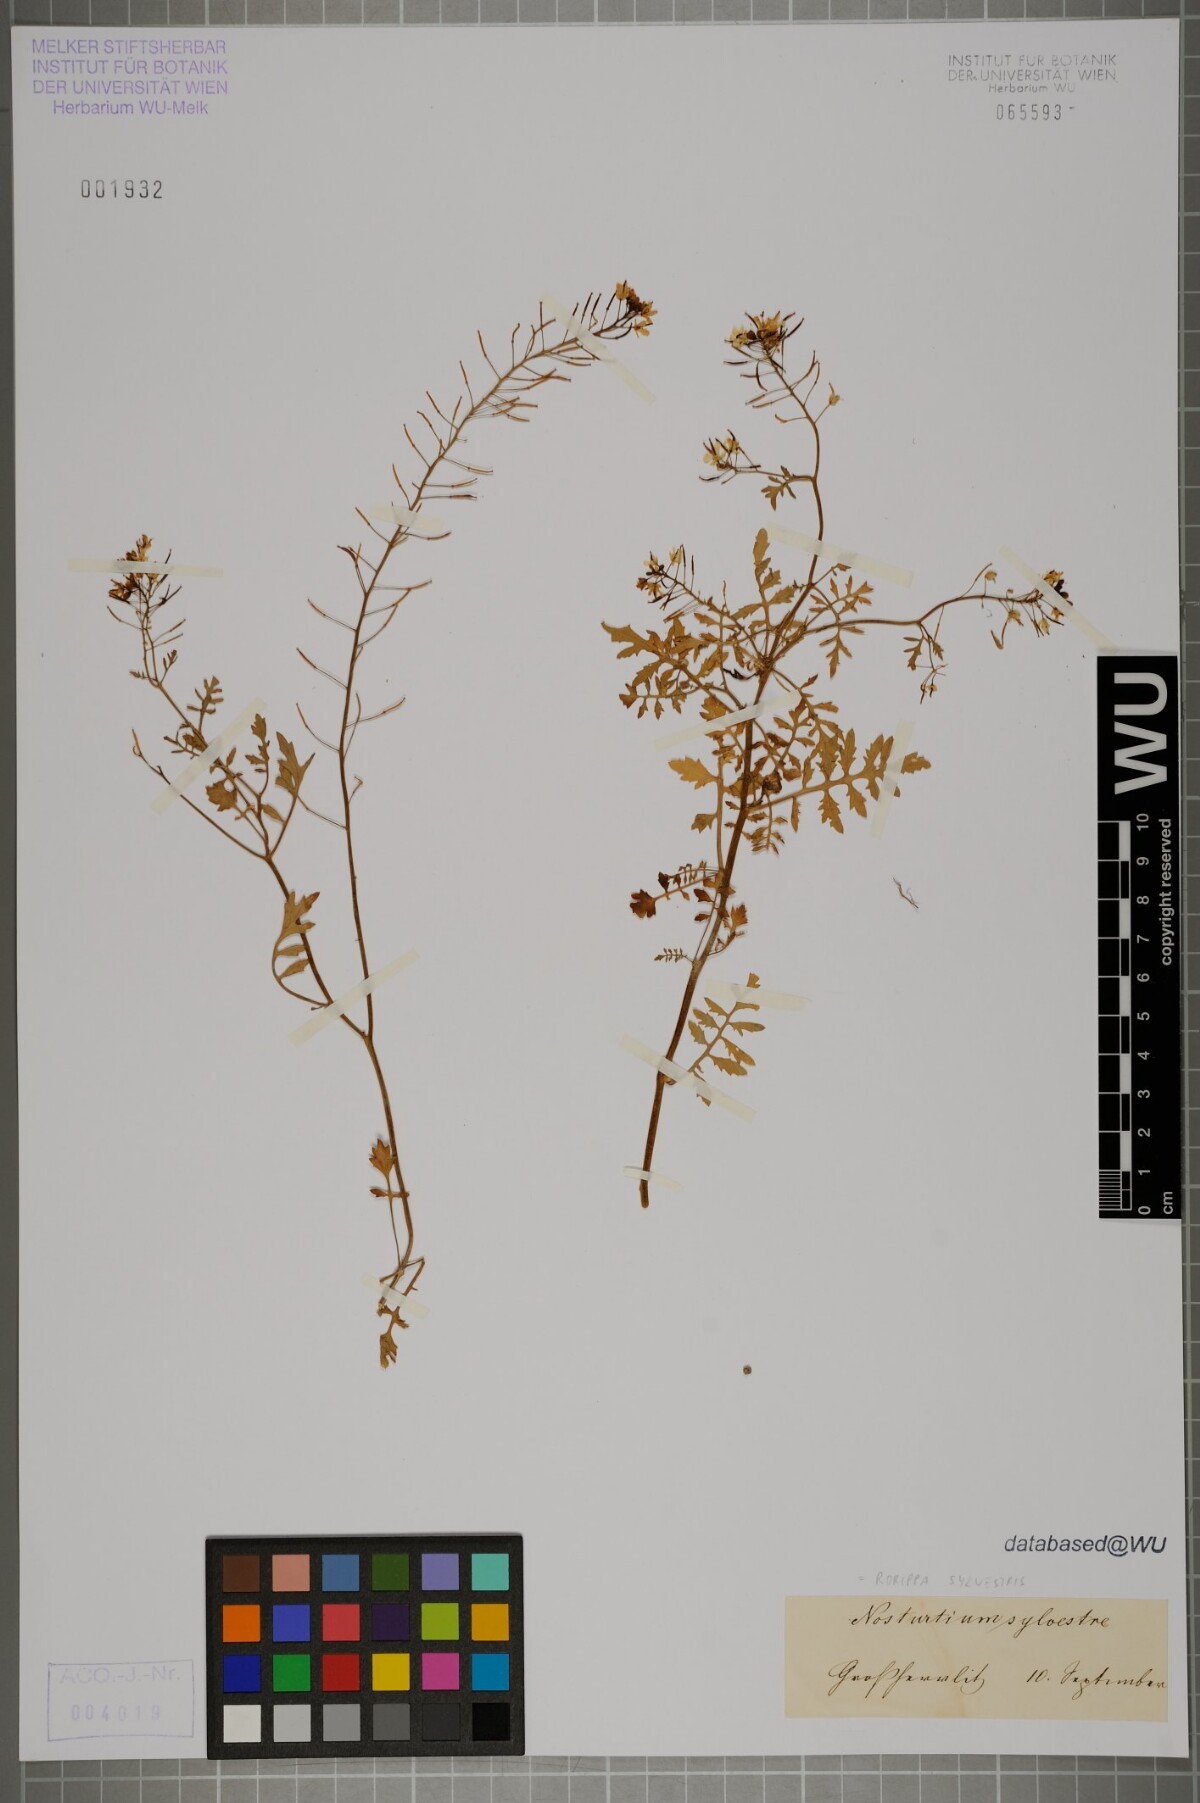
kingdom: Plantae
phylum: Tracheophyta
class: Magnoliopsida
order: Brassicales
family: Brassicaceae
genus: Rorippa
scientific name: Rorippa sylvestris
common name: Creeping yellowcress
